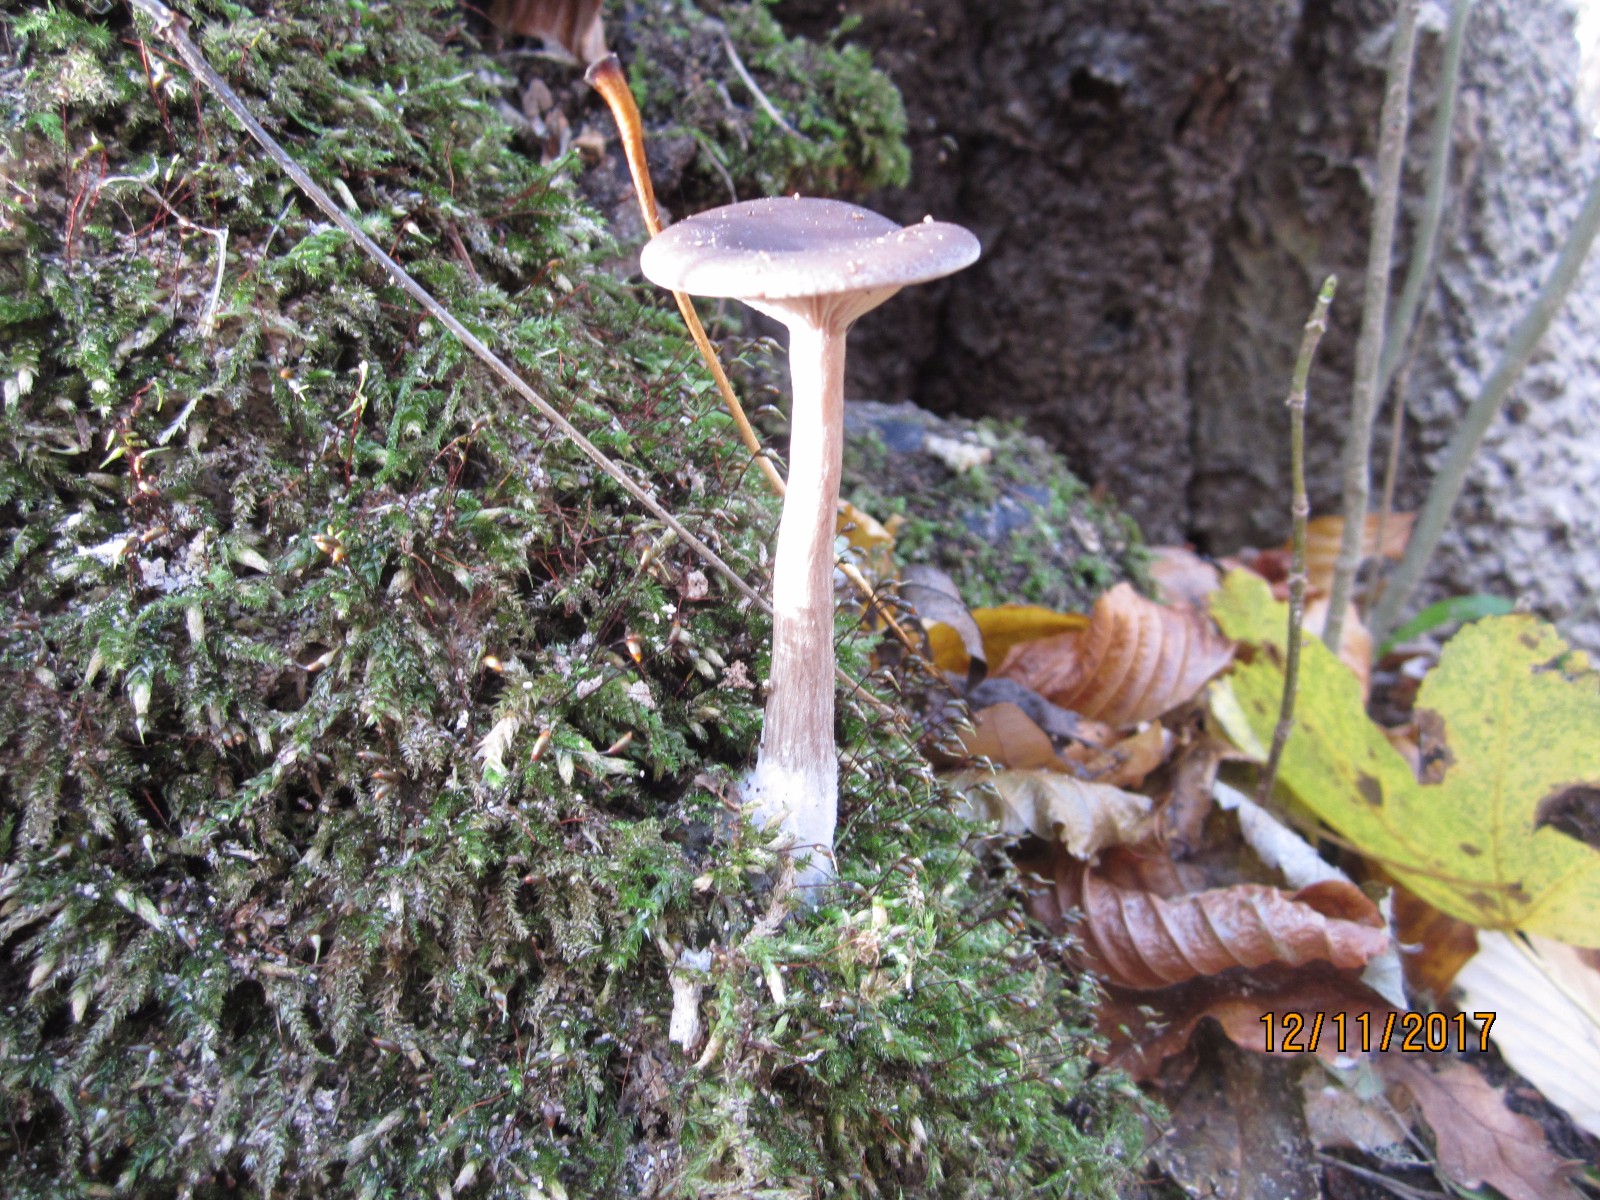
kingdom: Fungi
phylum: Basidiomycota
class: Agaricomycetes
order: Agaricales
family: Pseudoclitocybaceae
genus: Pseudoclitocybe
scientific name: Pseudoclitocybe cyathiformis
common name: almindelig bægertragthat
